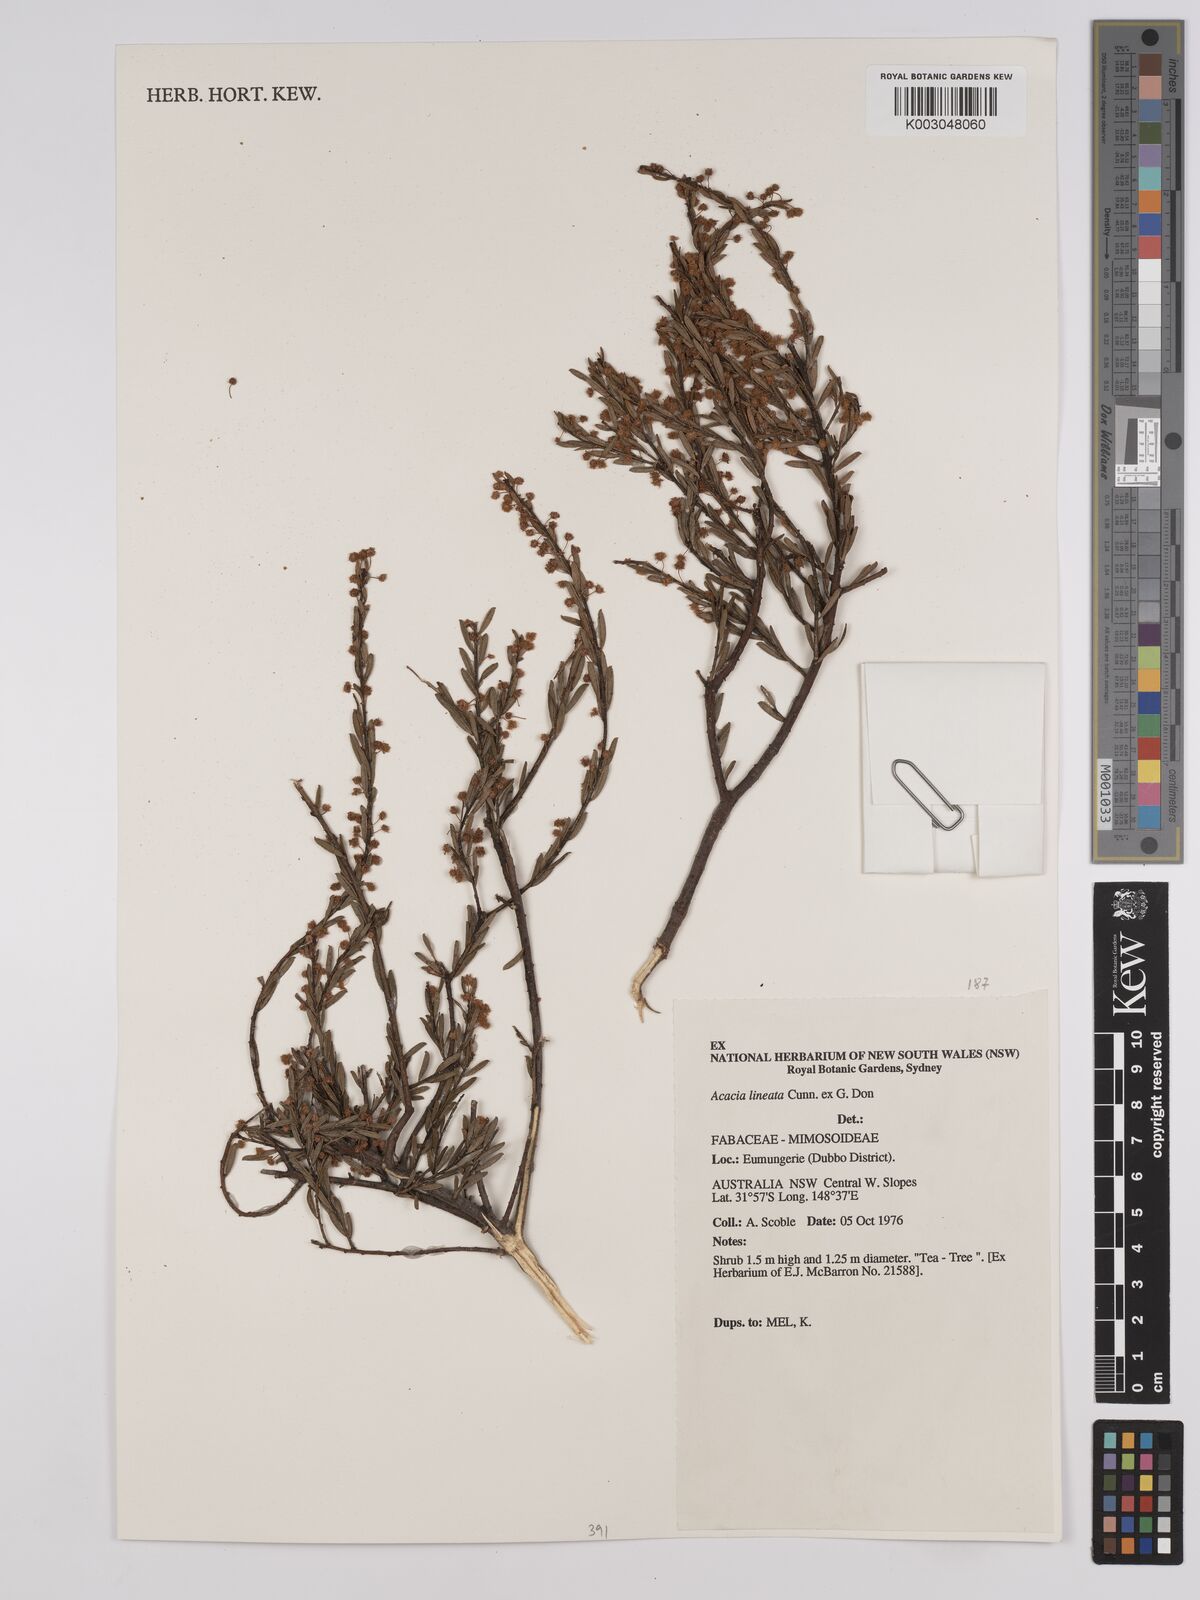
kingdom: Plantae
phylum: Tracheophyta
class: Magnoliopsida
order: Fabales
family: Fabaceae
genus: Acacia
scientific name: Acacia lineata
